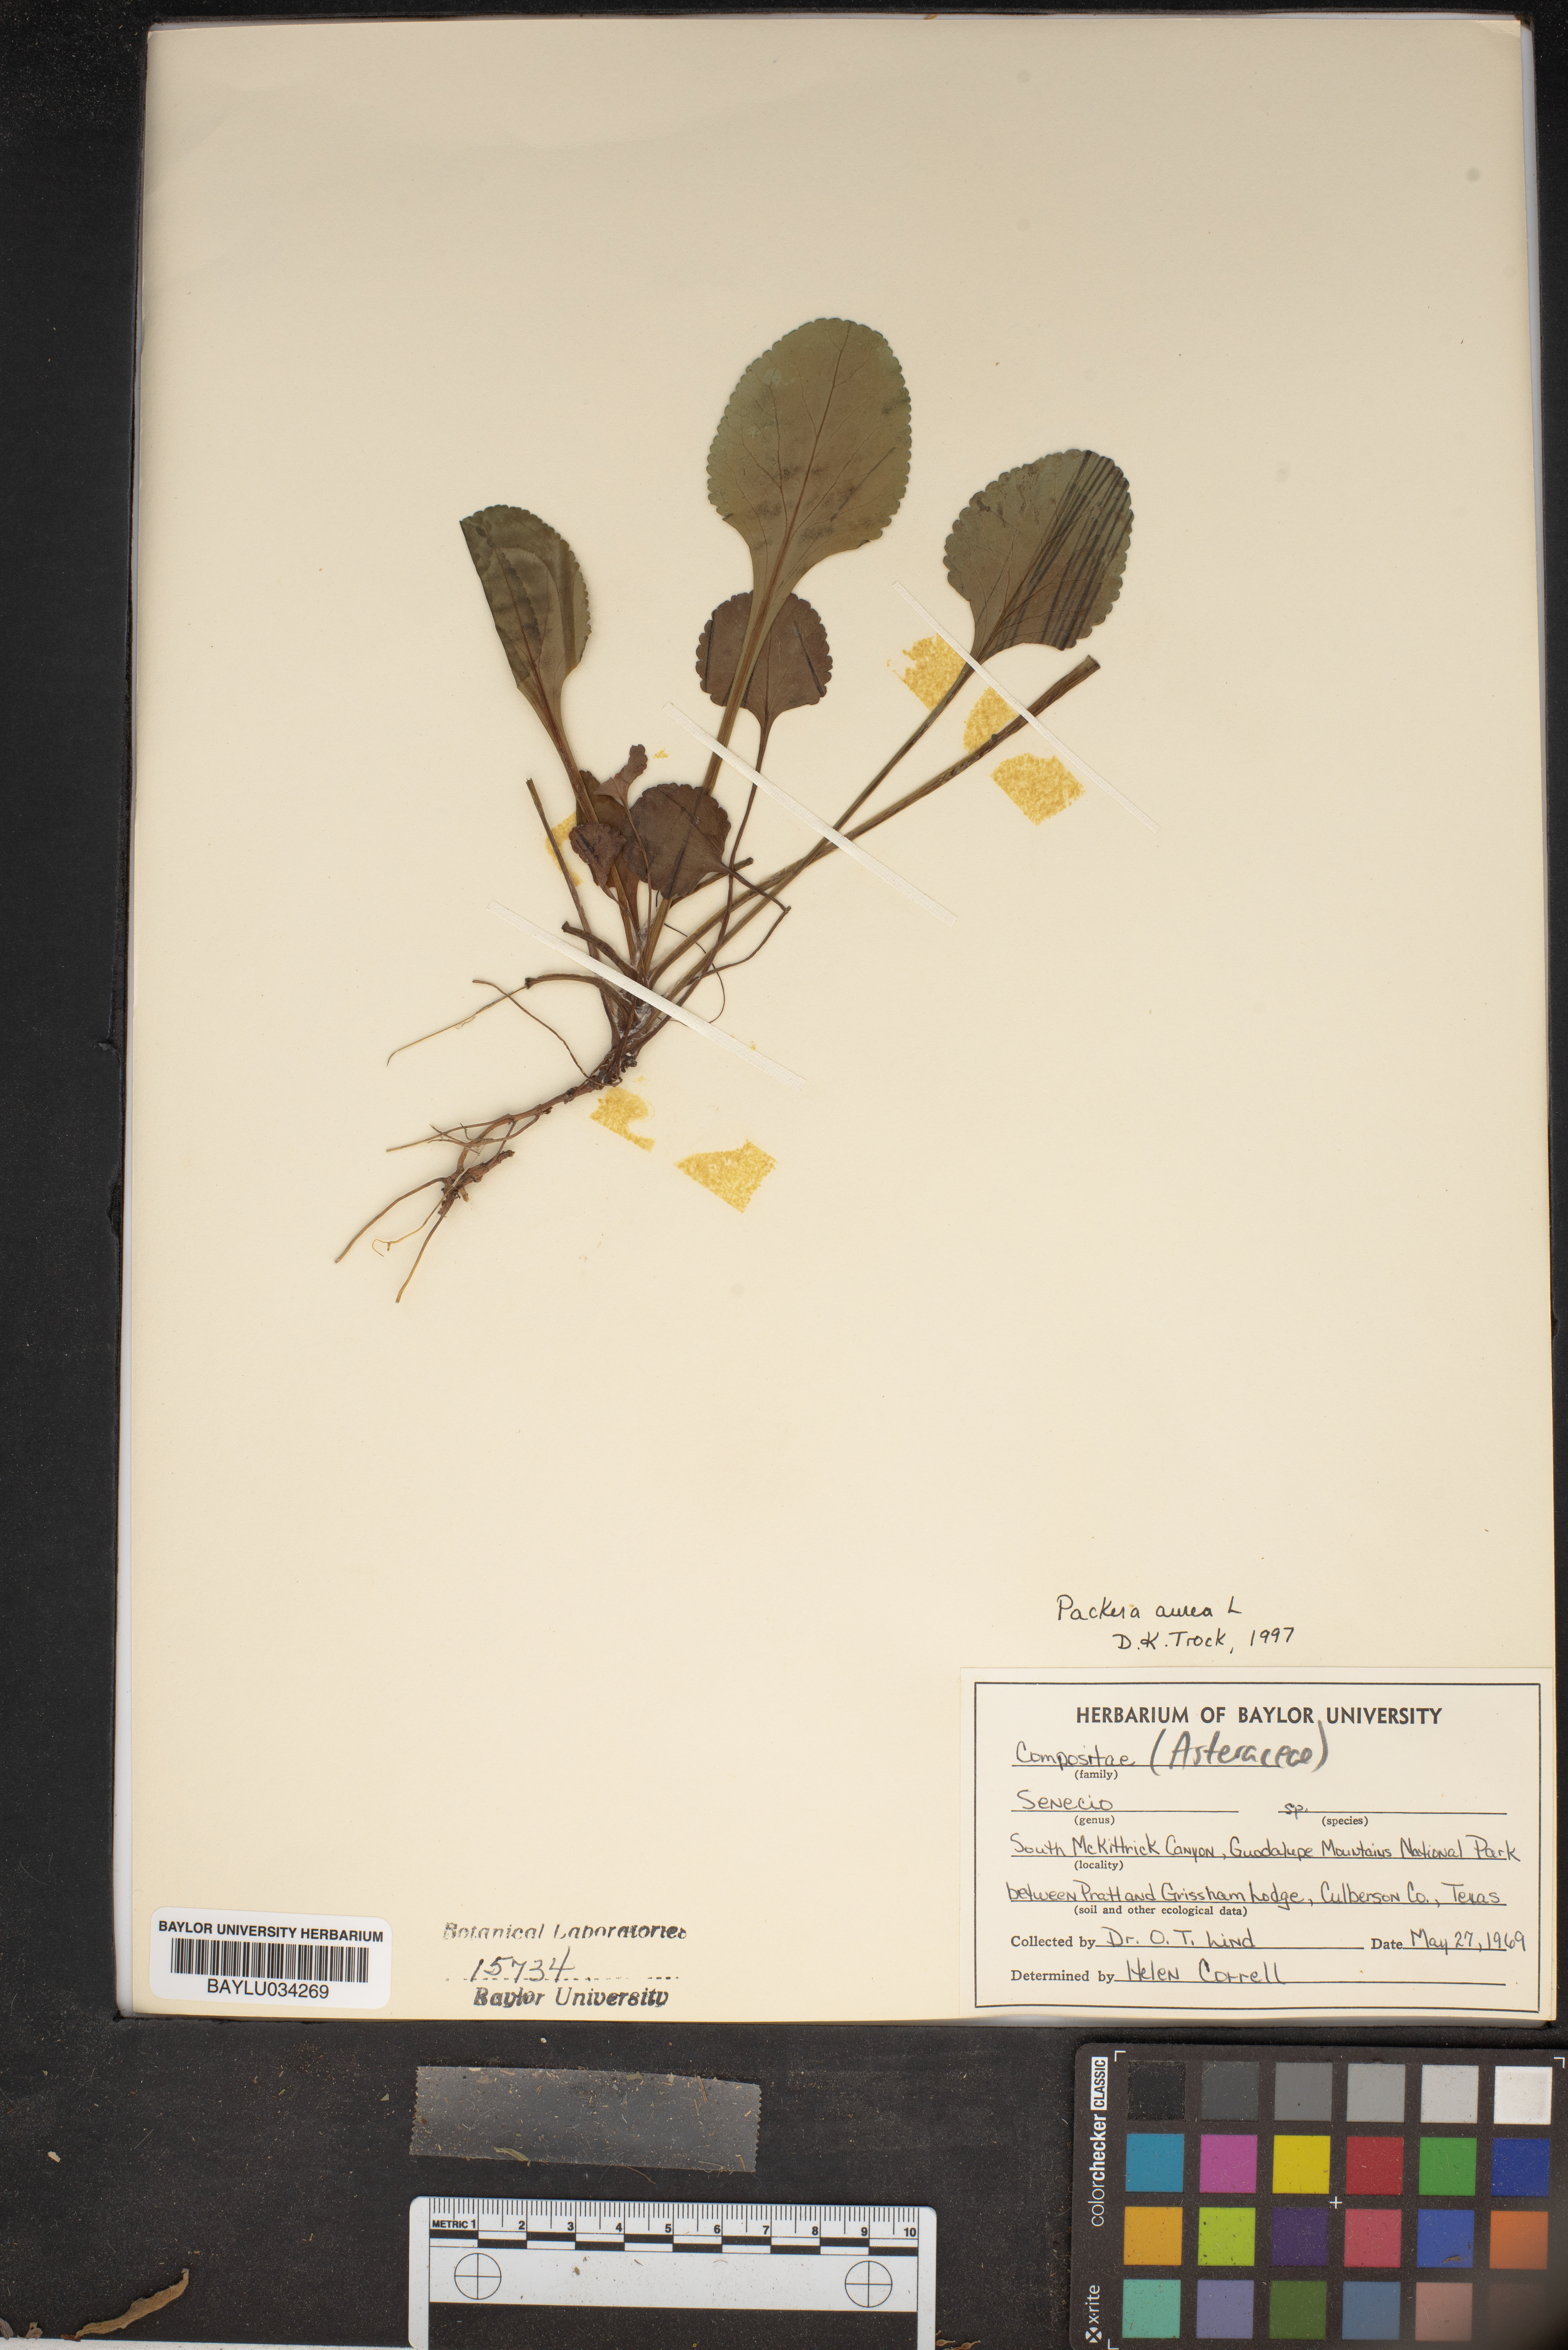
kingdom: Plantae
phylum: Tracheophyta
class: Magnoliopsida
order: Asterales
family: Asteraceae
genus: Packera
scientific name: Packera aurea
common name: Golden groundsel
